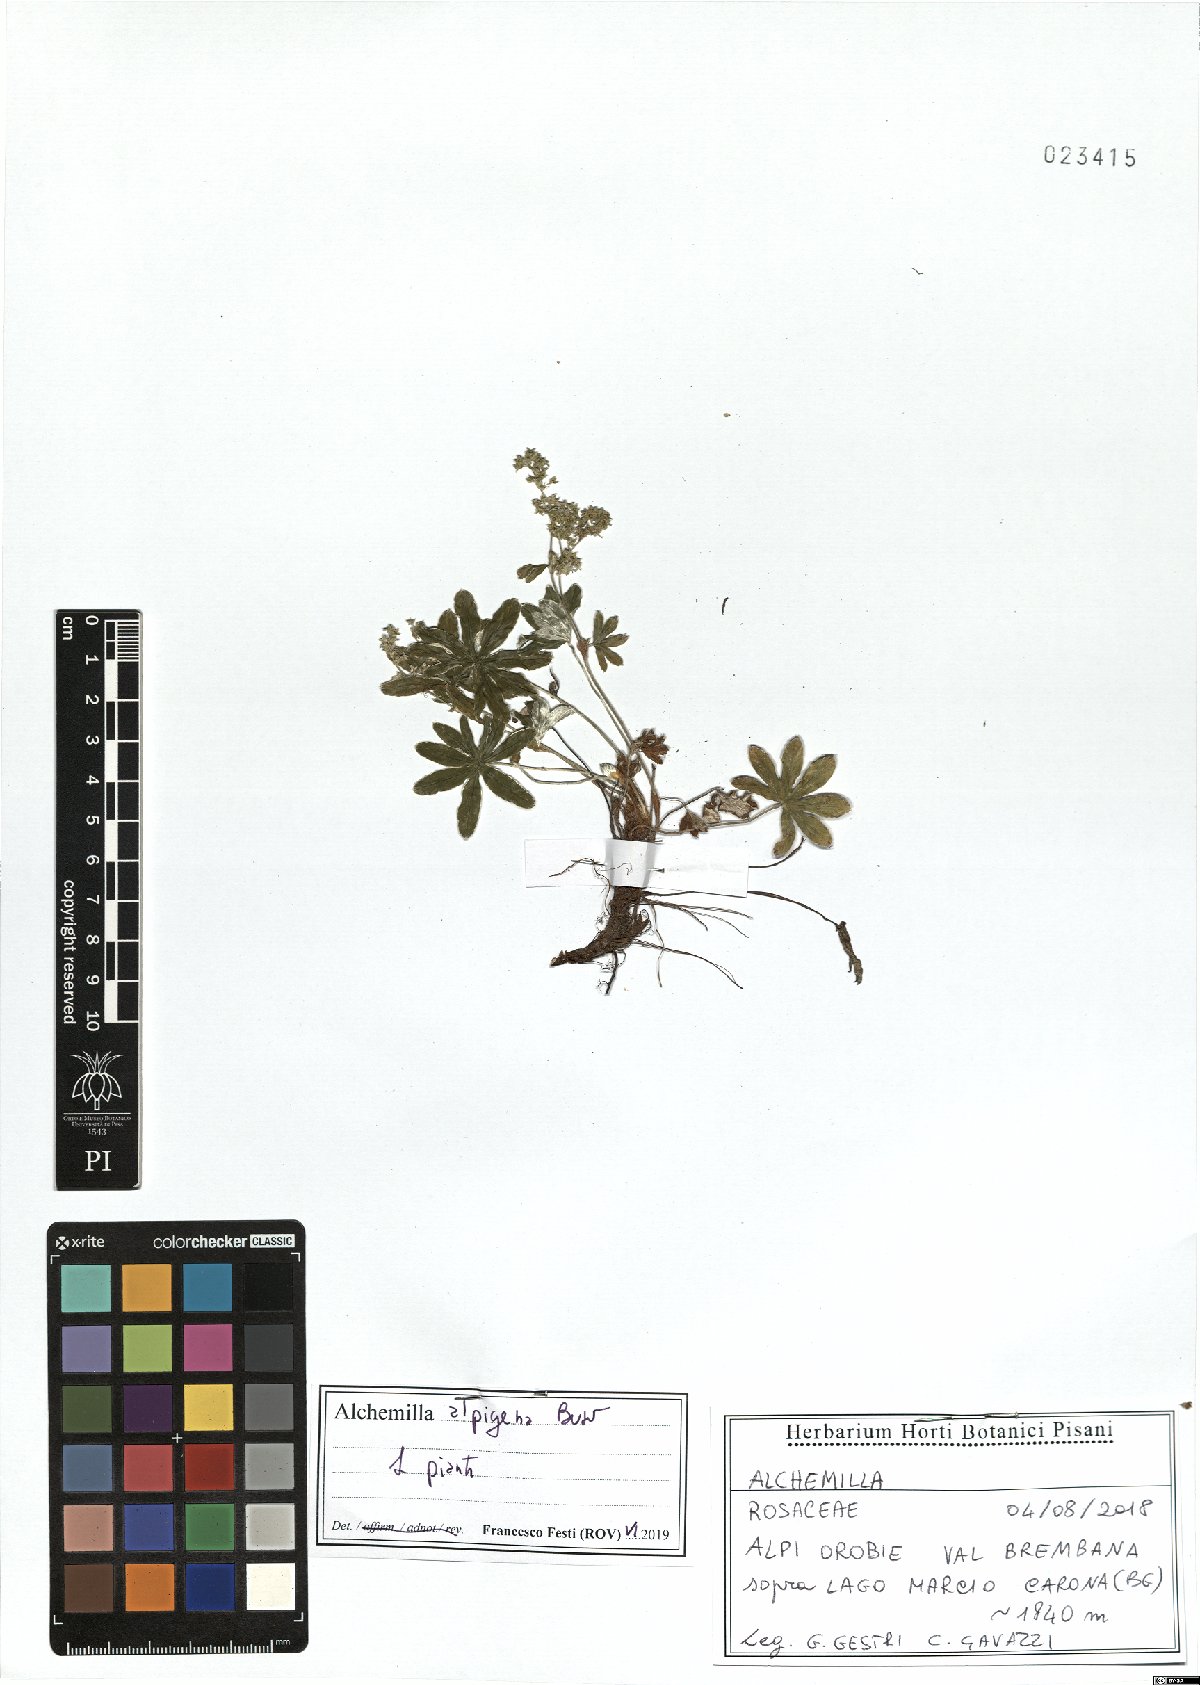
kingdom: Plantae
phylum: Tracheophyta
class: Magnoliopsida
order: Rosales
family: Rosaceae
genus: Alchemilla
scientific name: Alchemilla alpigena
